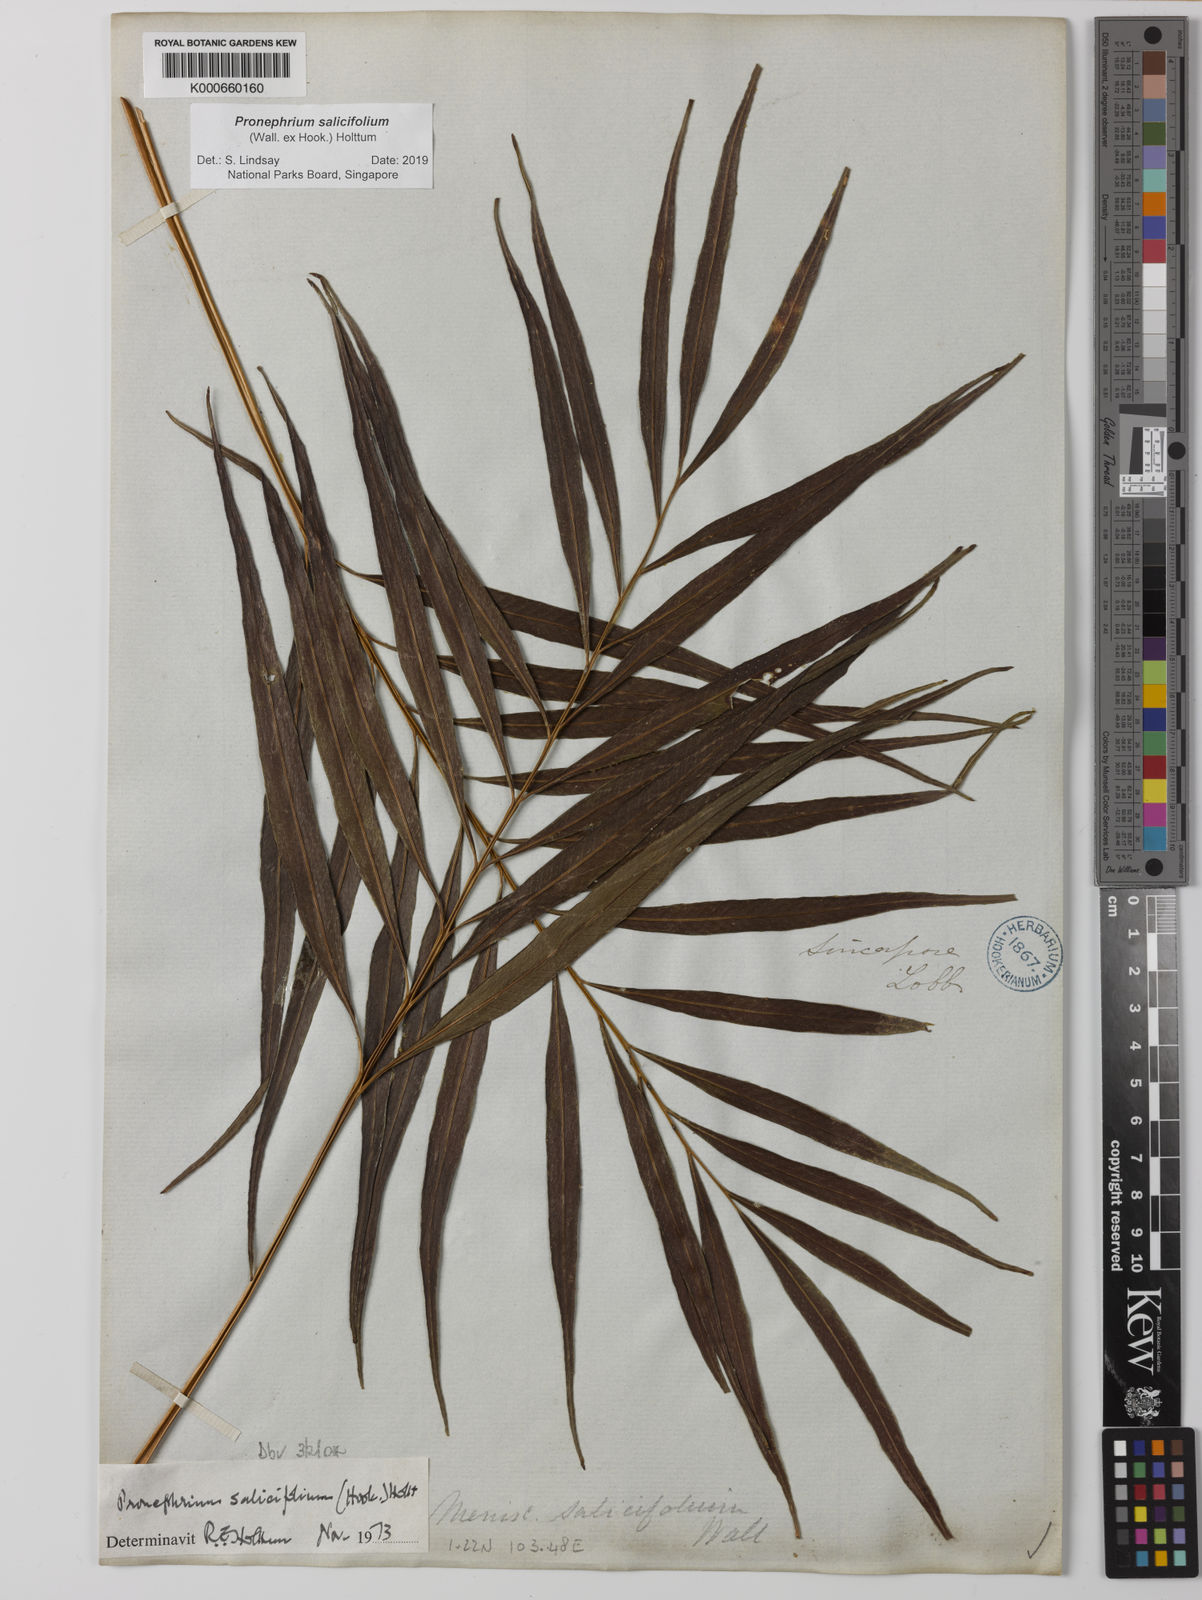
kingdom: Plantae
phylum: Tracheophyta
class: Polypodiopsida
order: Polypodiales
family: Thelypteridaceae
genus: Grypothrix
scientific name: Grypothrix salicifolia
